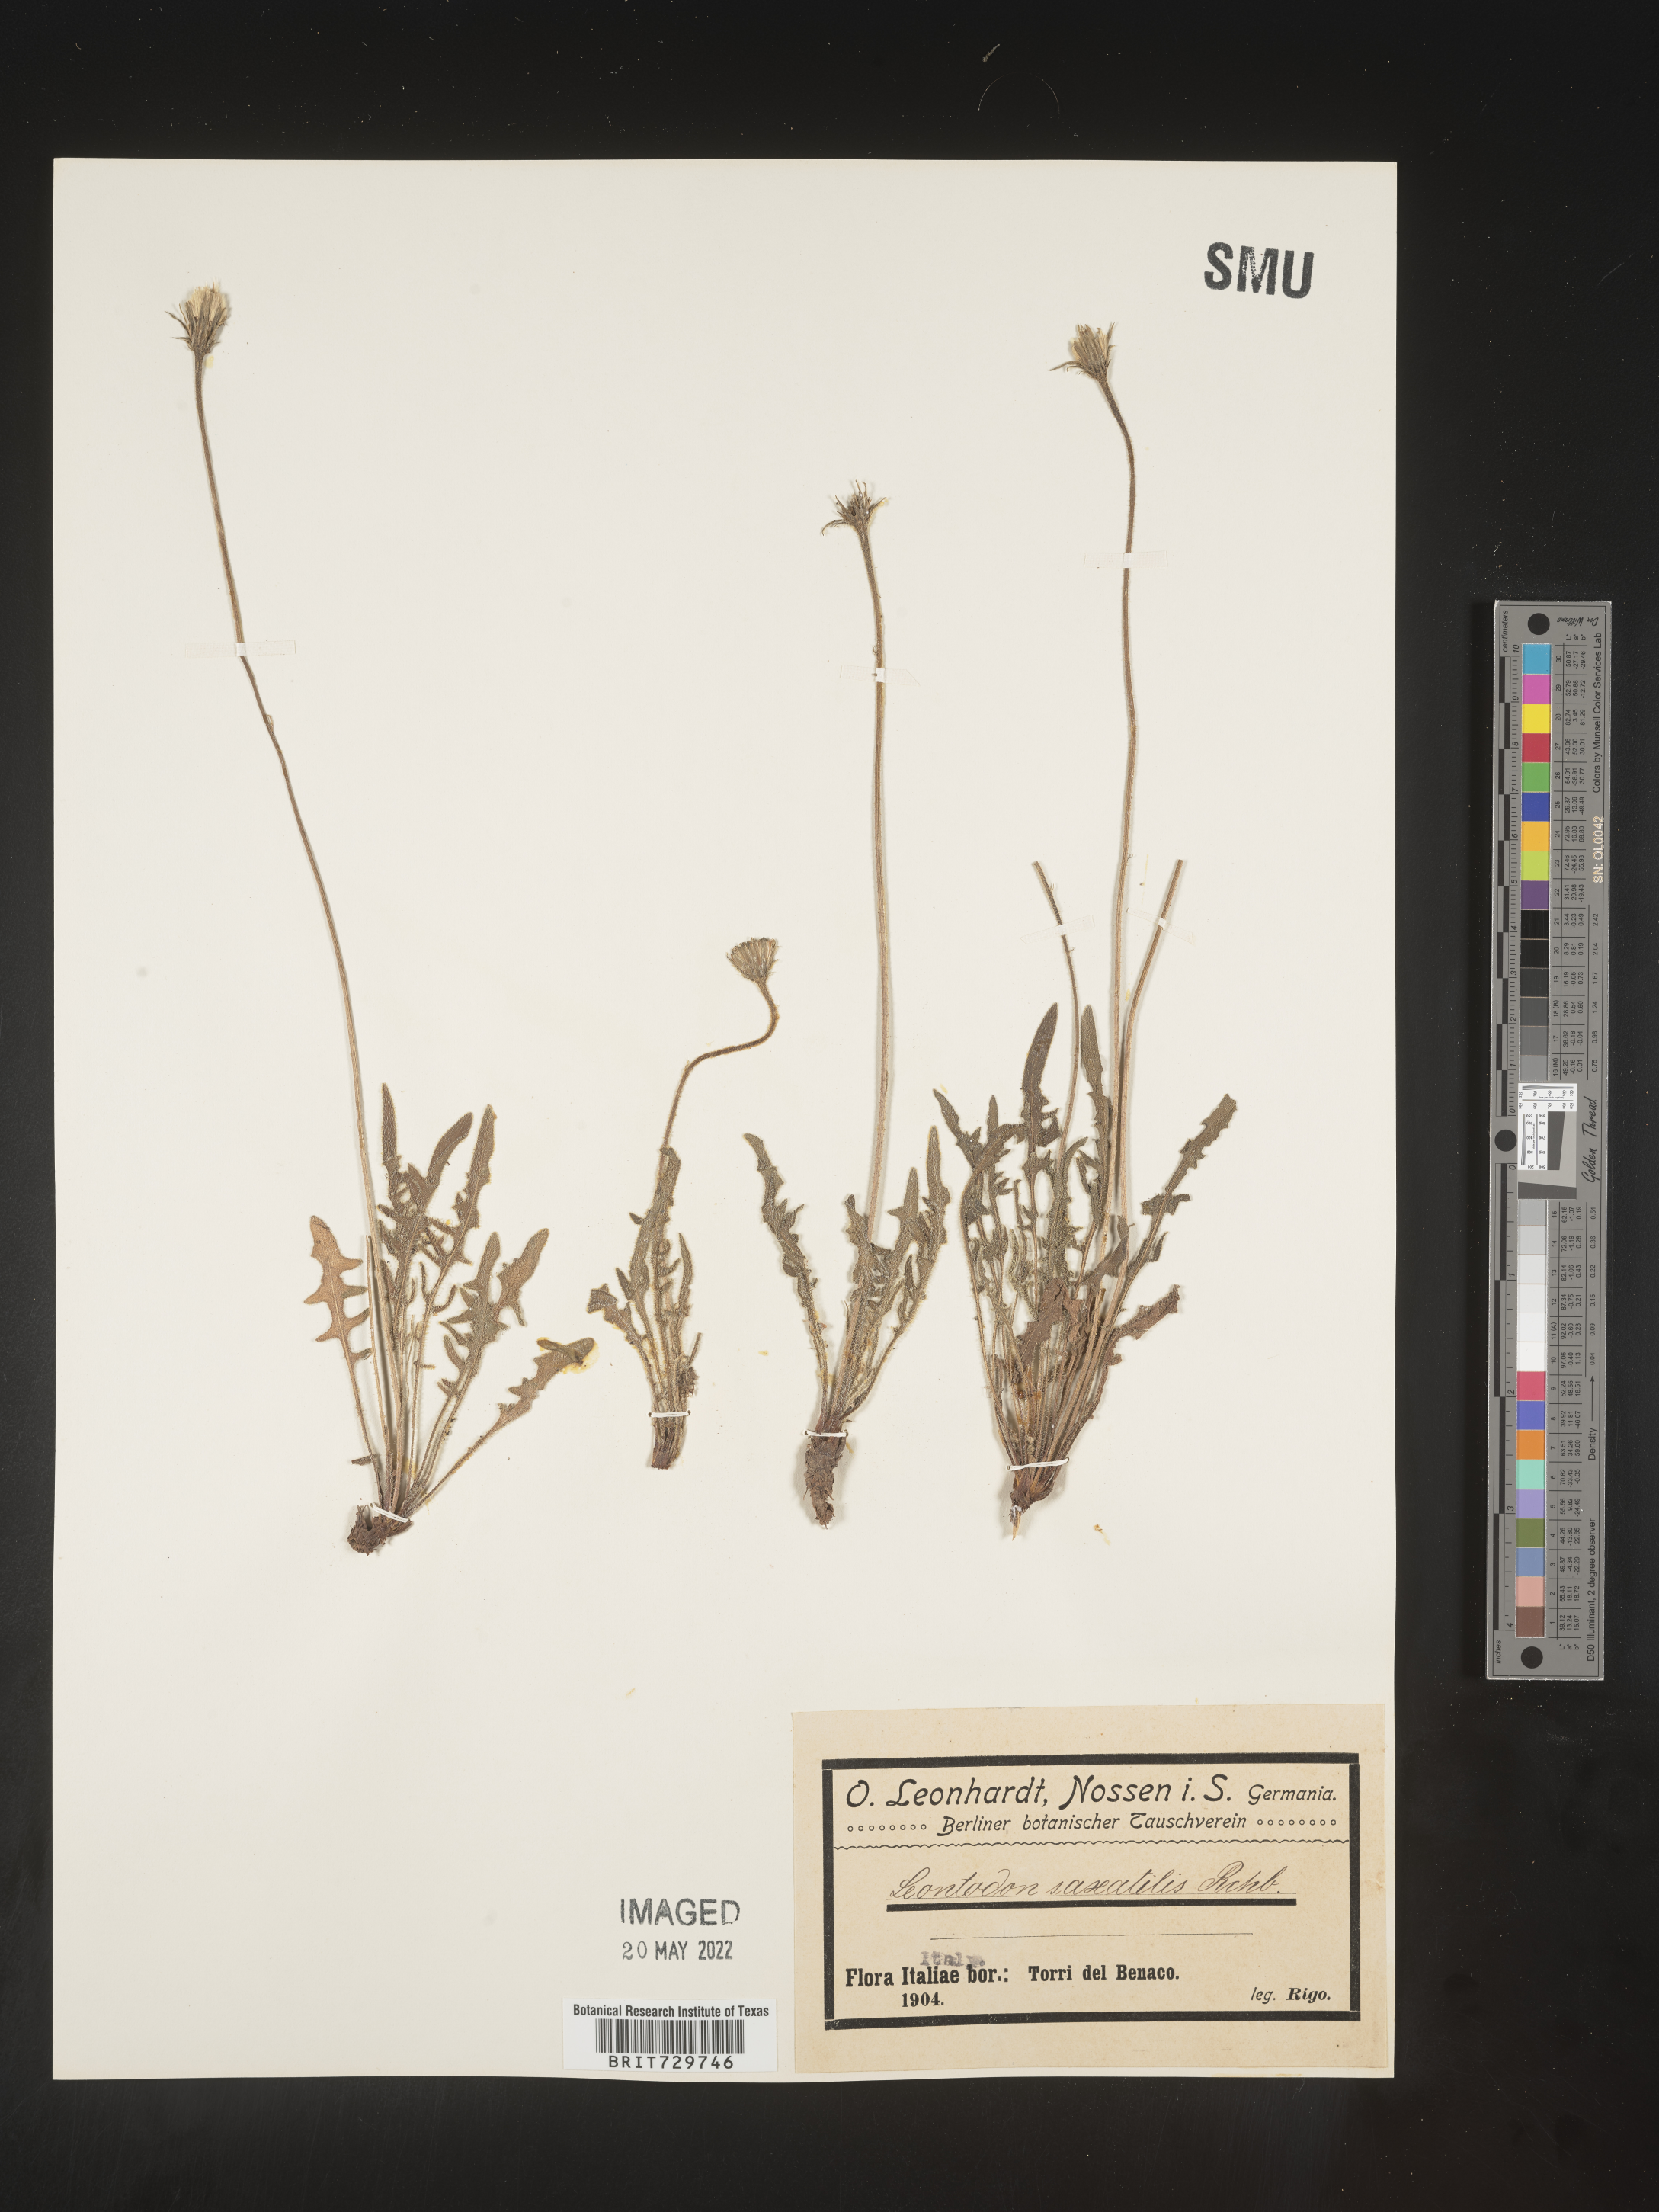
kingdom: Plantae
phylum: Tracheophyta
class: Magnoliopsida
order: Asterales
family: Asteraceae
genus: Leontodon
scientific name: Leontodon
